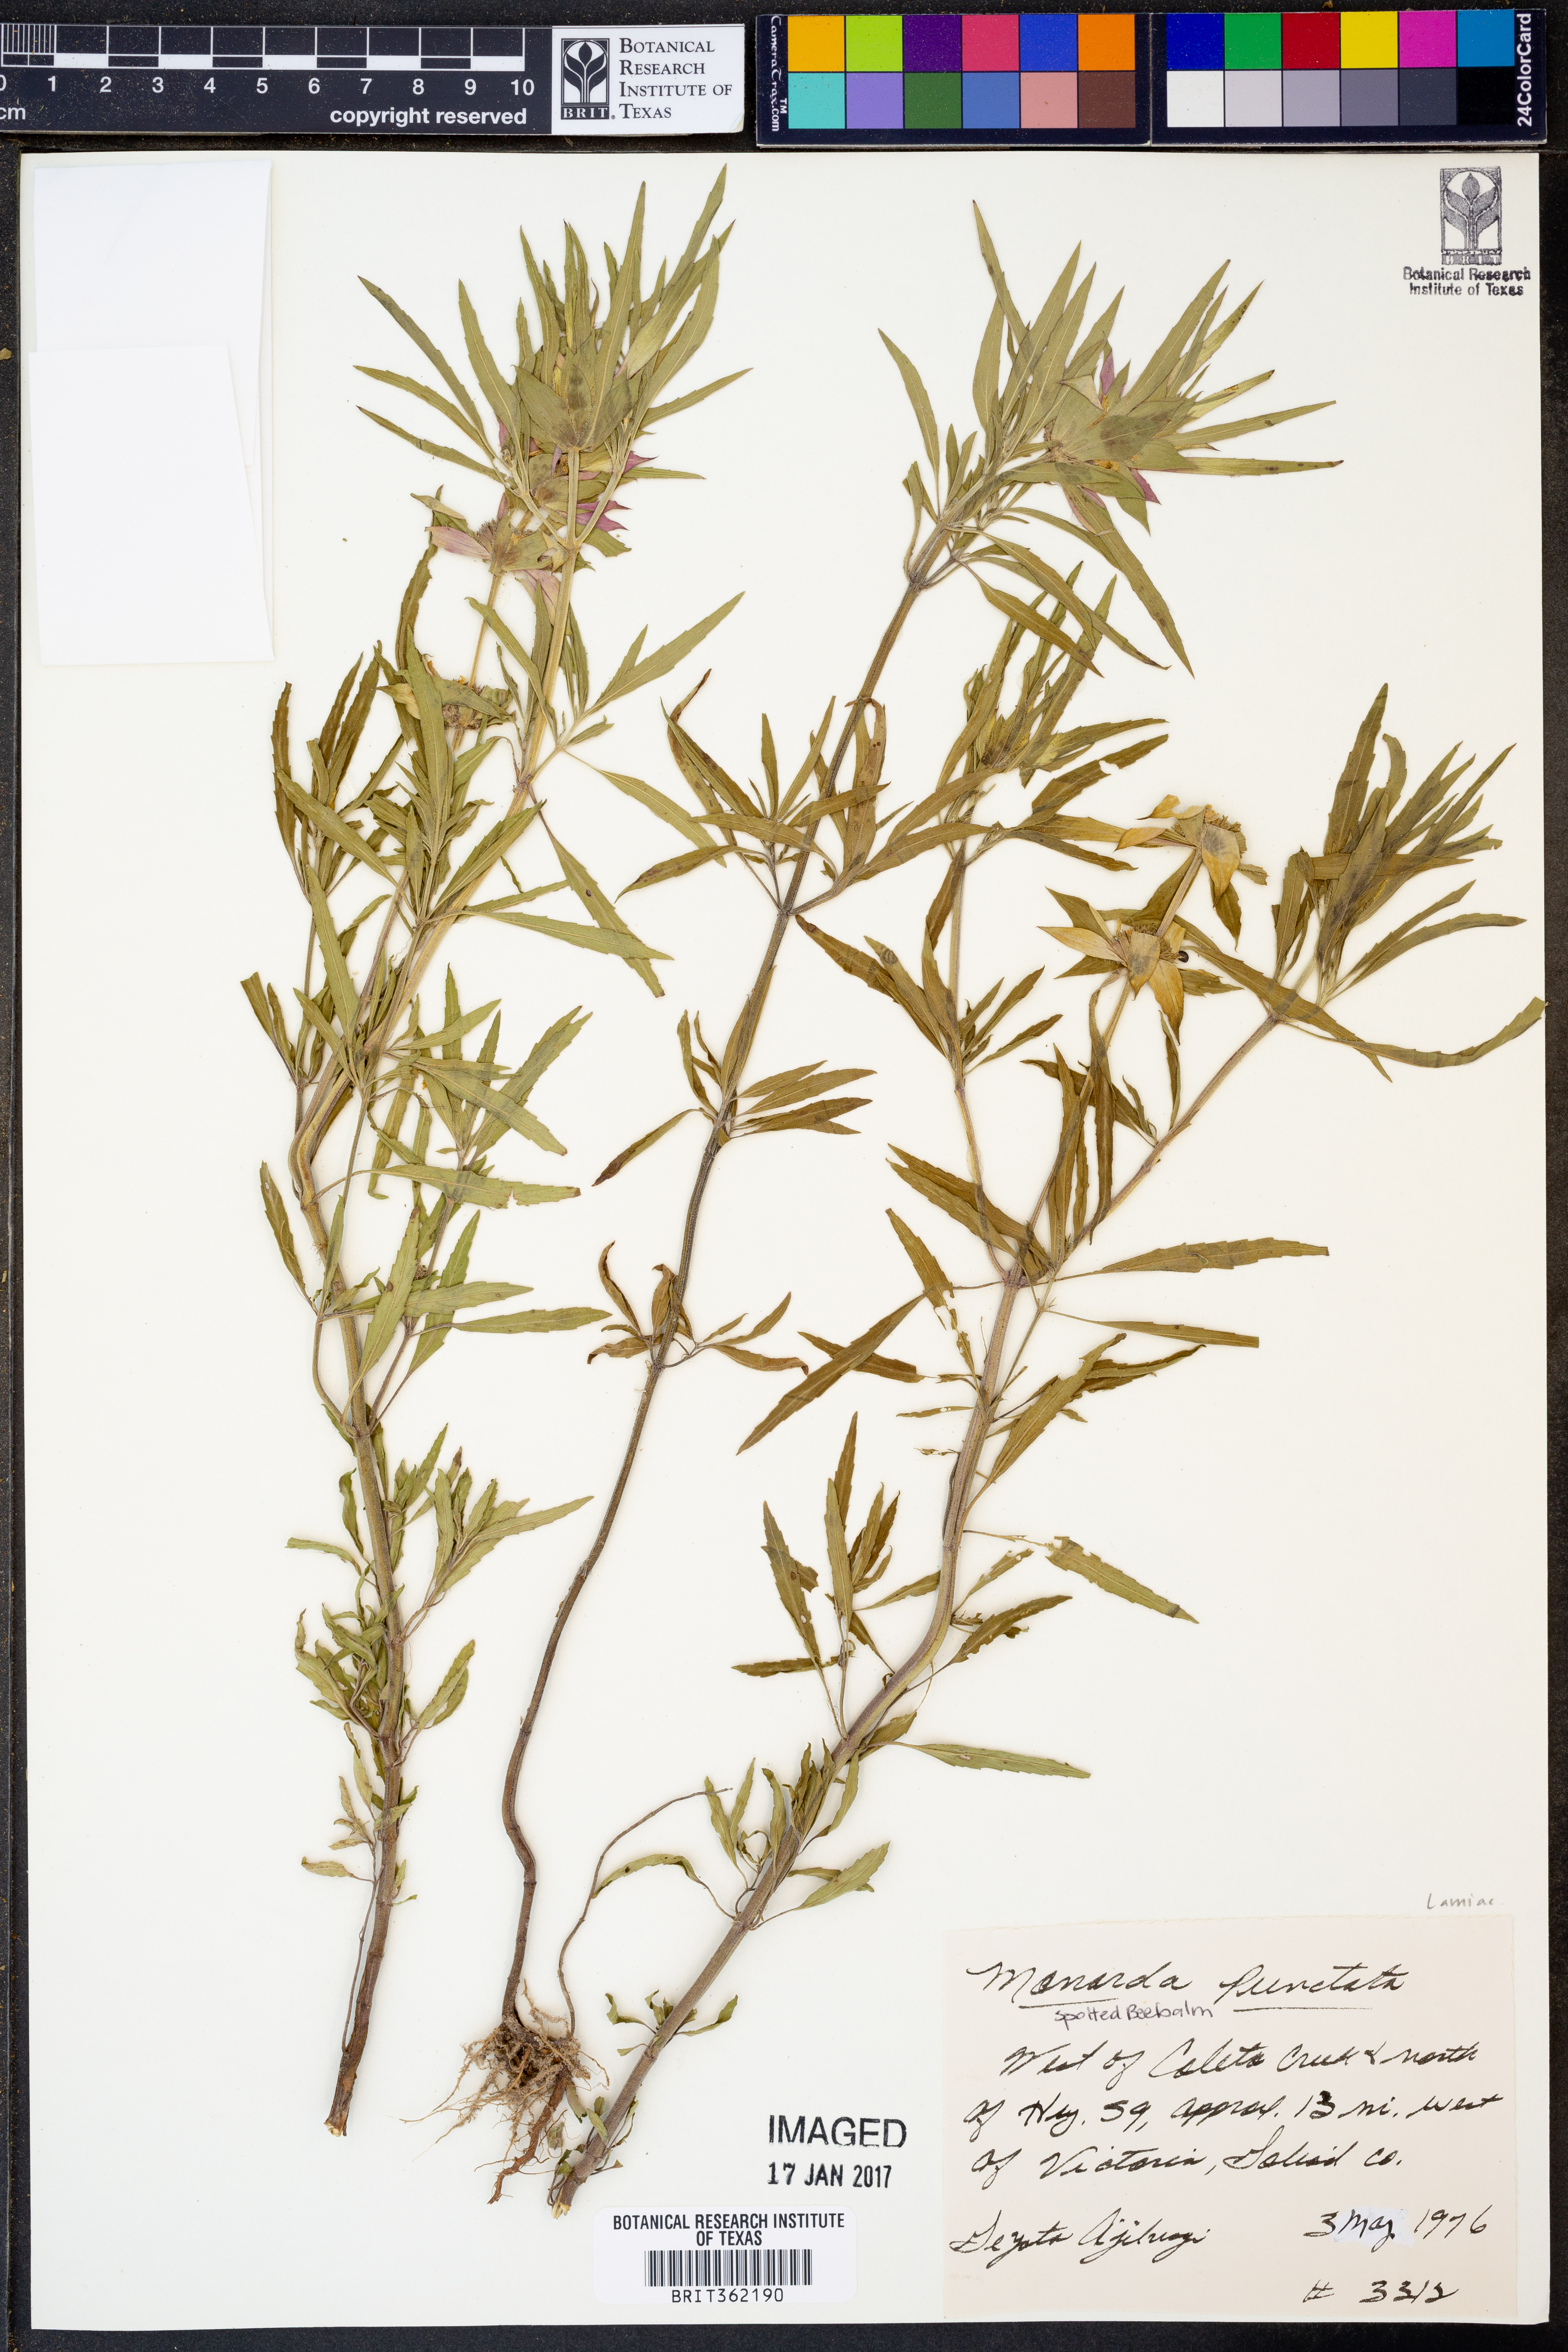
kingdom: Plantae
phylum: Tracheophyta
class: Magnoliopsida
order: Lamiales
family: Lamiaceae
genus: Monarda
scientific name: Monarda punctata
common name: Dotted monarda
